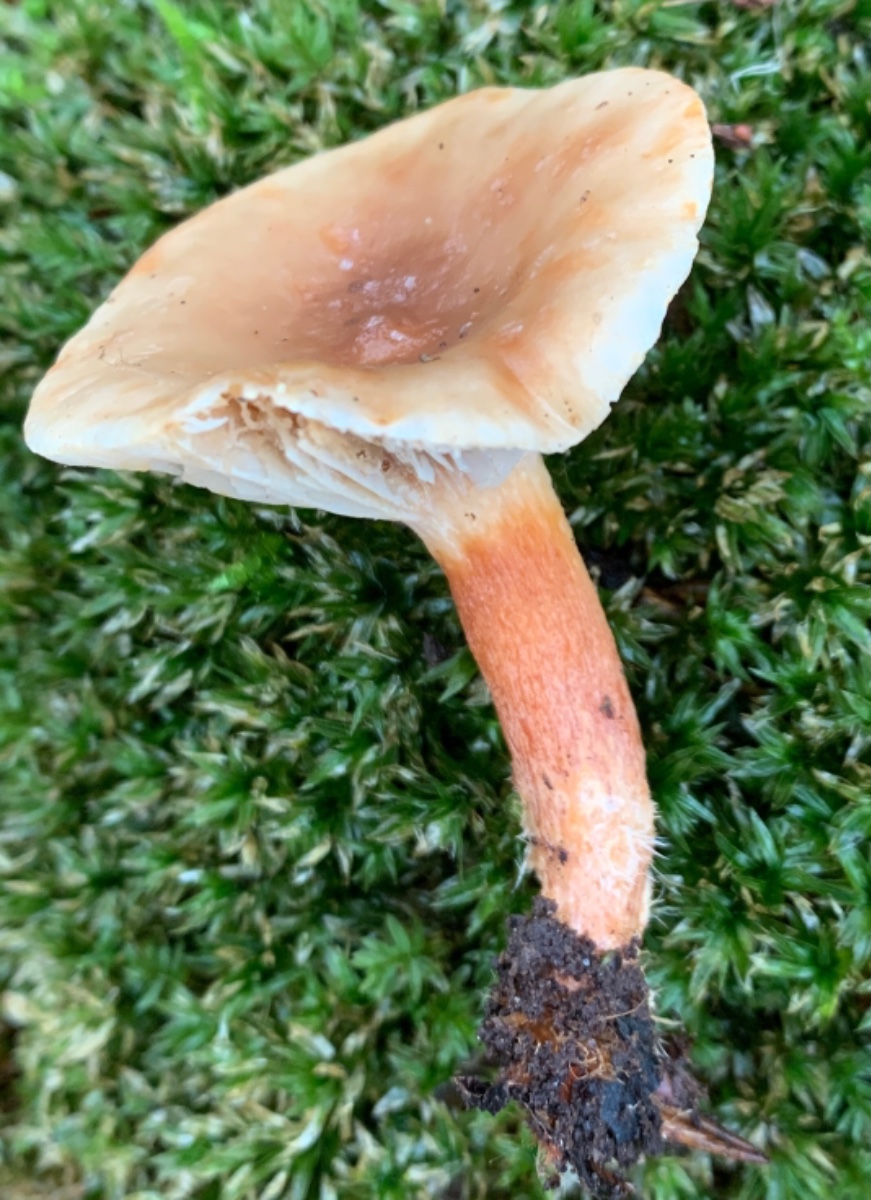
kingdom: Fungi
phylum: Basidiomycota
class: Agaricomycetes
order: Russulales
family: Russulaceae
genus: Lactarius
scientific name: Lactarius subdulcis
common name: sødlig mælkehat
